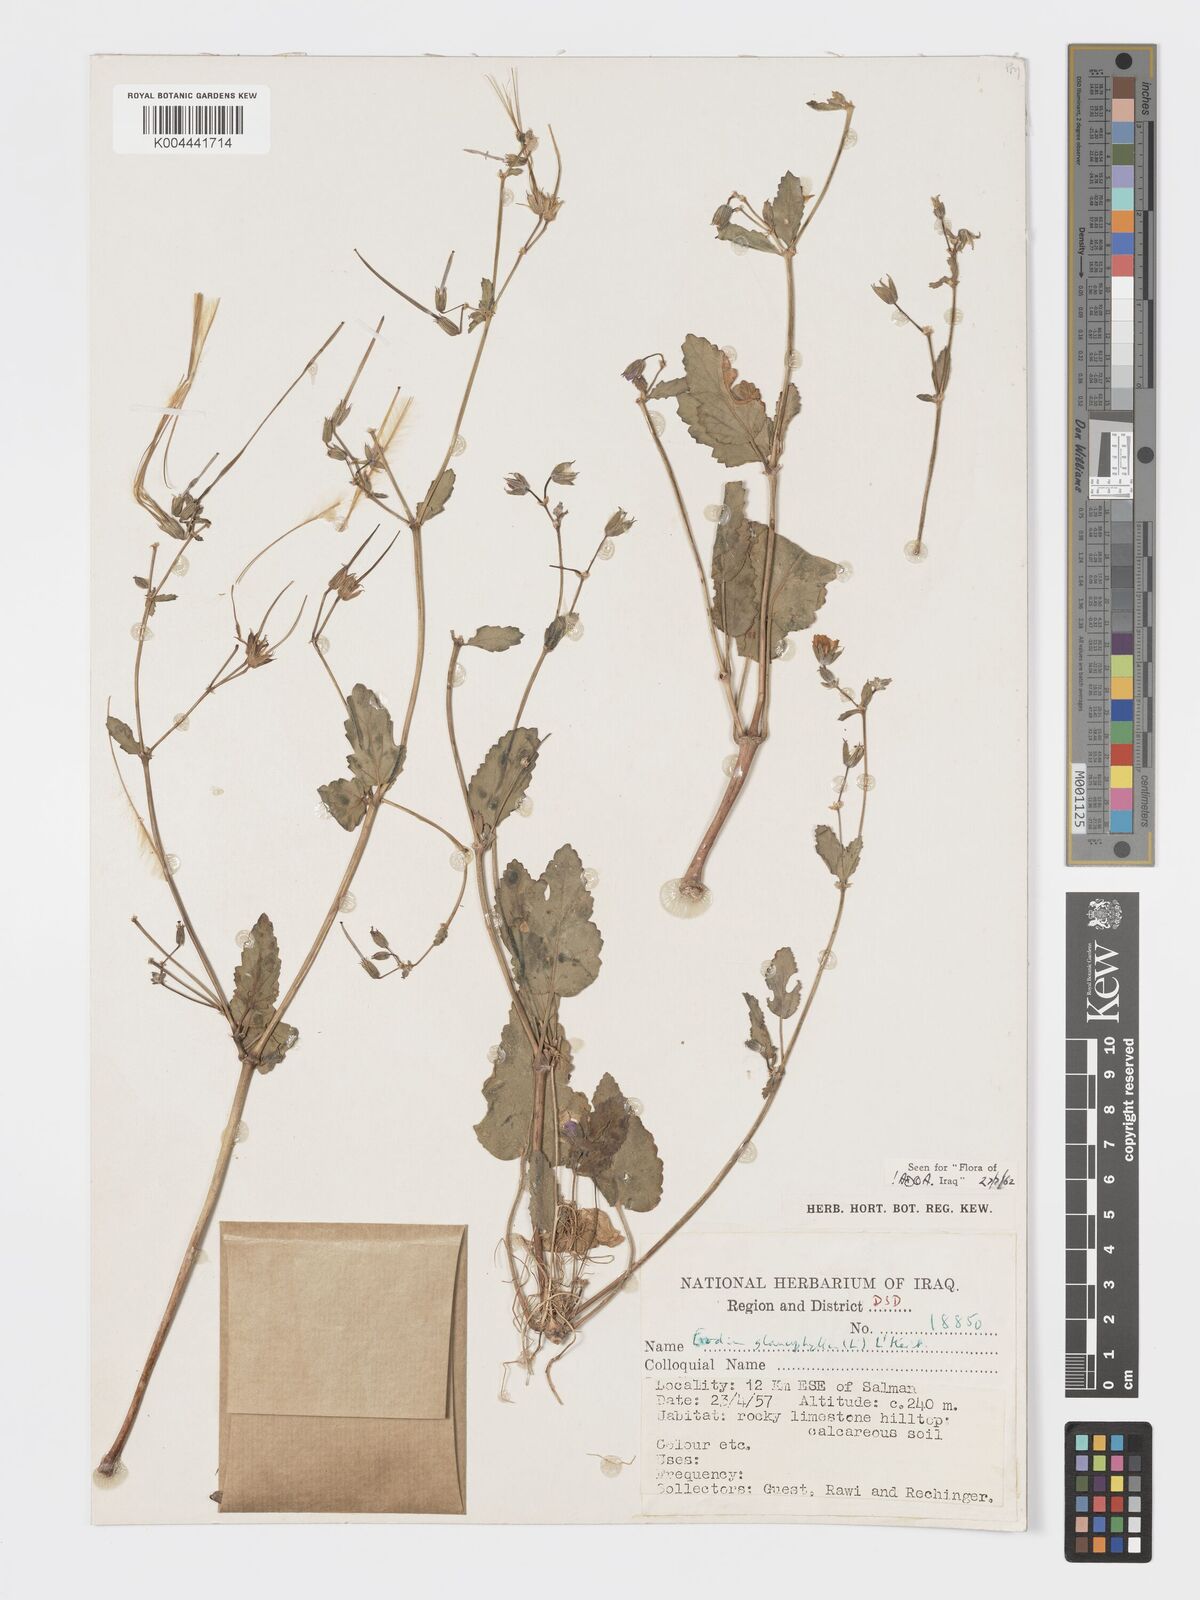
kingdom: Plantae
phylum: Tracheophyta
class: Magnoliopsida
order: Geraniales
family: Geraniaceae
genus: Erodium
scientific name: Erodium glaucophyllum
